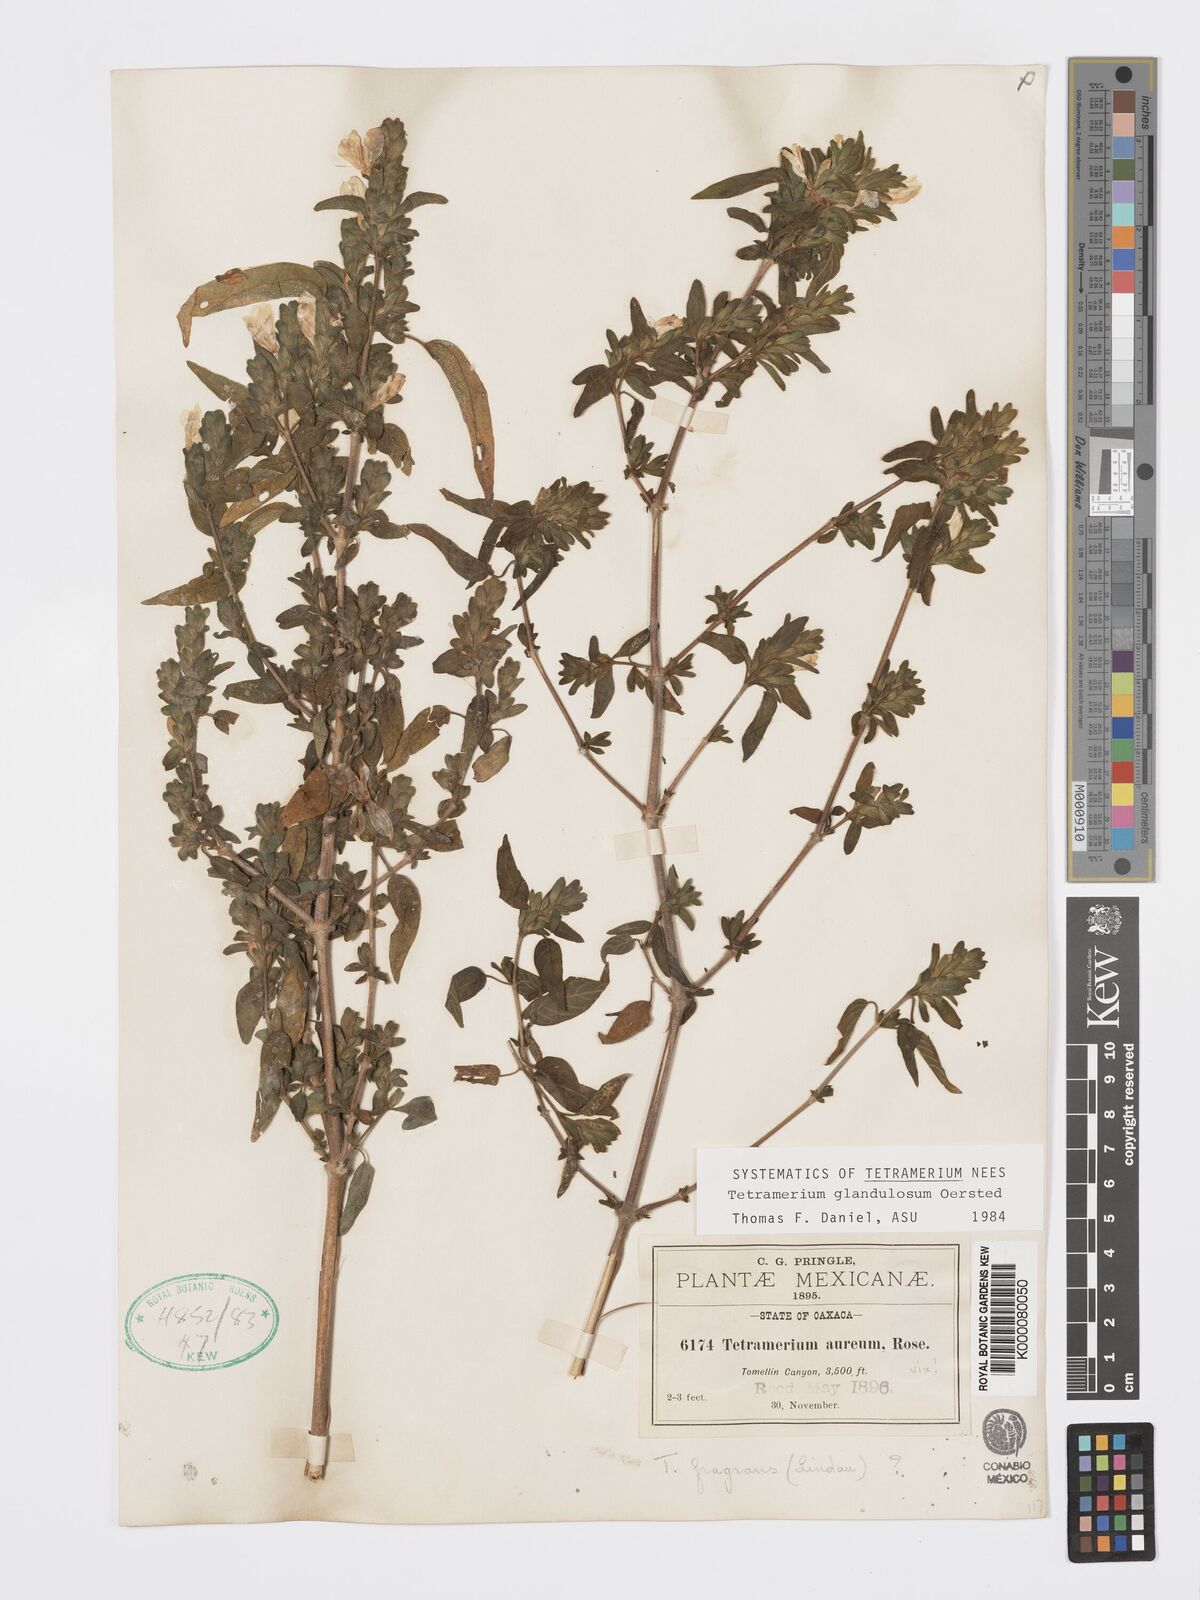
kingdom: Plantae
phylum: Tracheophyta
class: Magnoliopsida
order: Lamiales
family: Acanthaceae
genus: Tetramerium
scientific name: Tetramerium glandulosum
